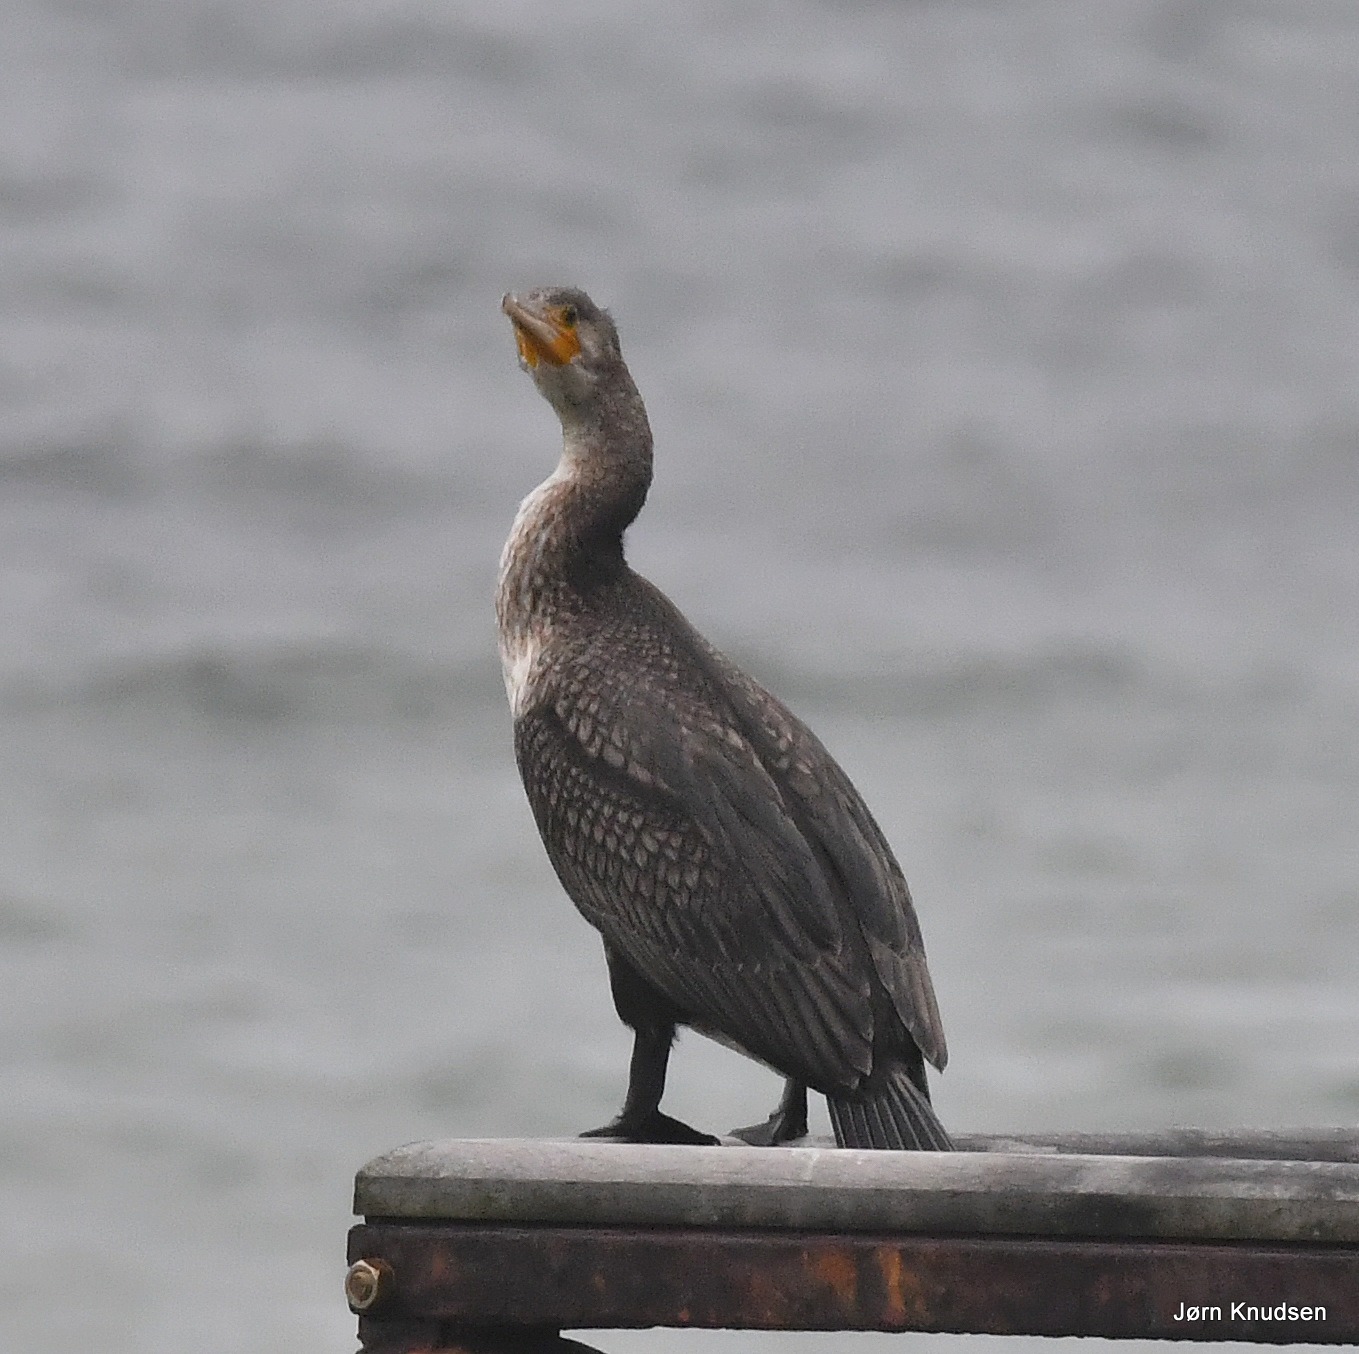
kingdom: Animalia
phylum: Chordata
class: Aves
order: Suliformes
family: Phalacrocoracidae
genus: Phalacrocorax
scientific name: Phalacrocorax carbo
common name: Skarv
